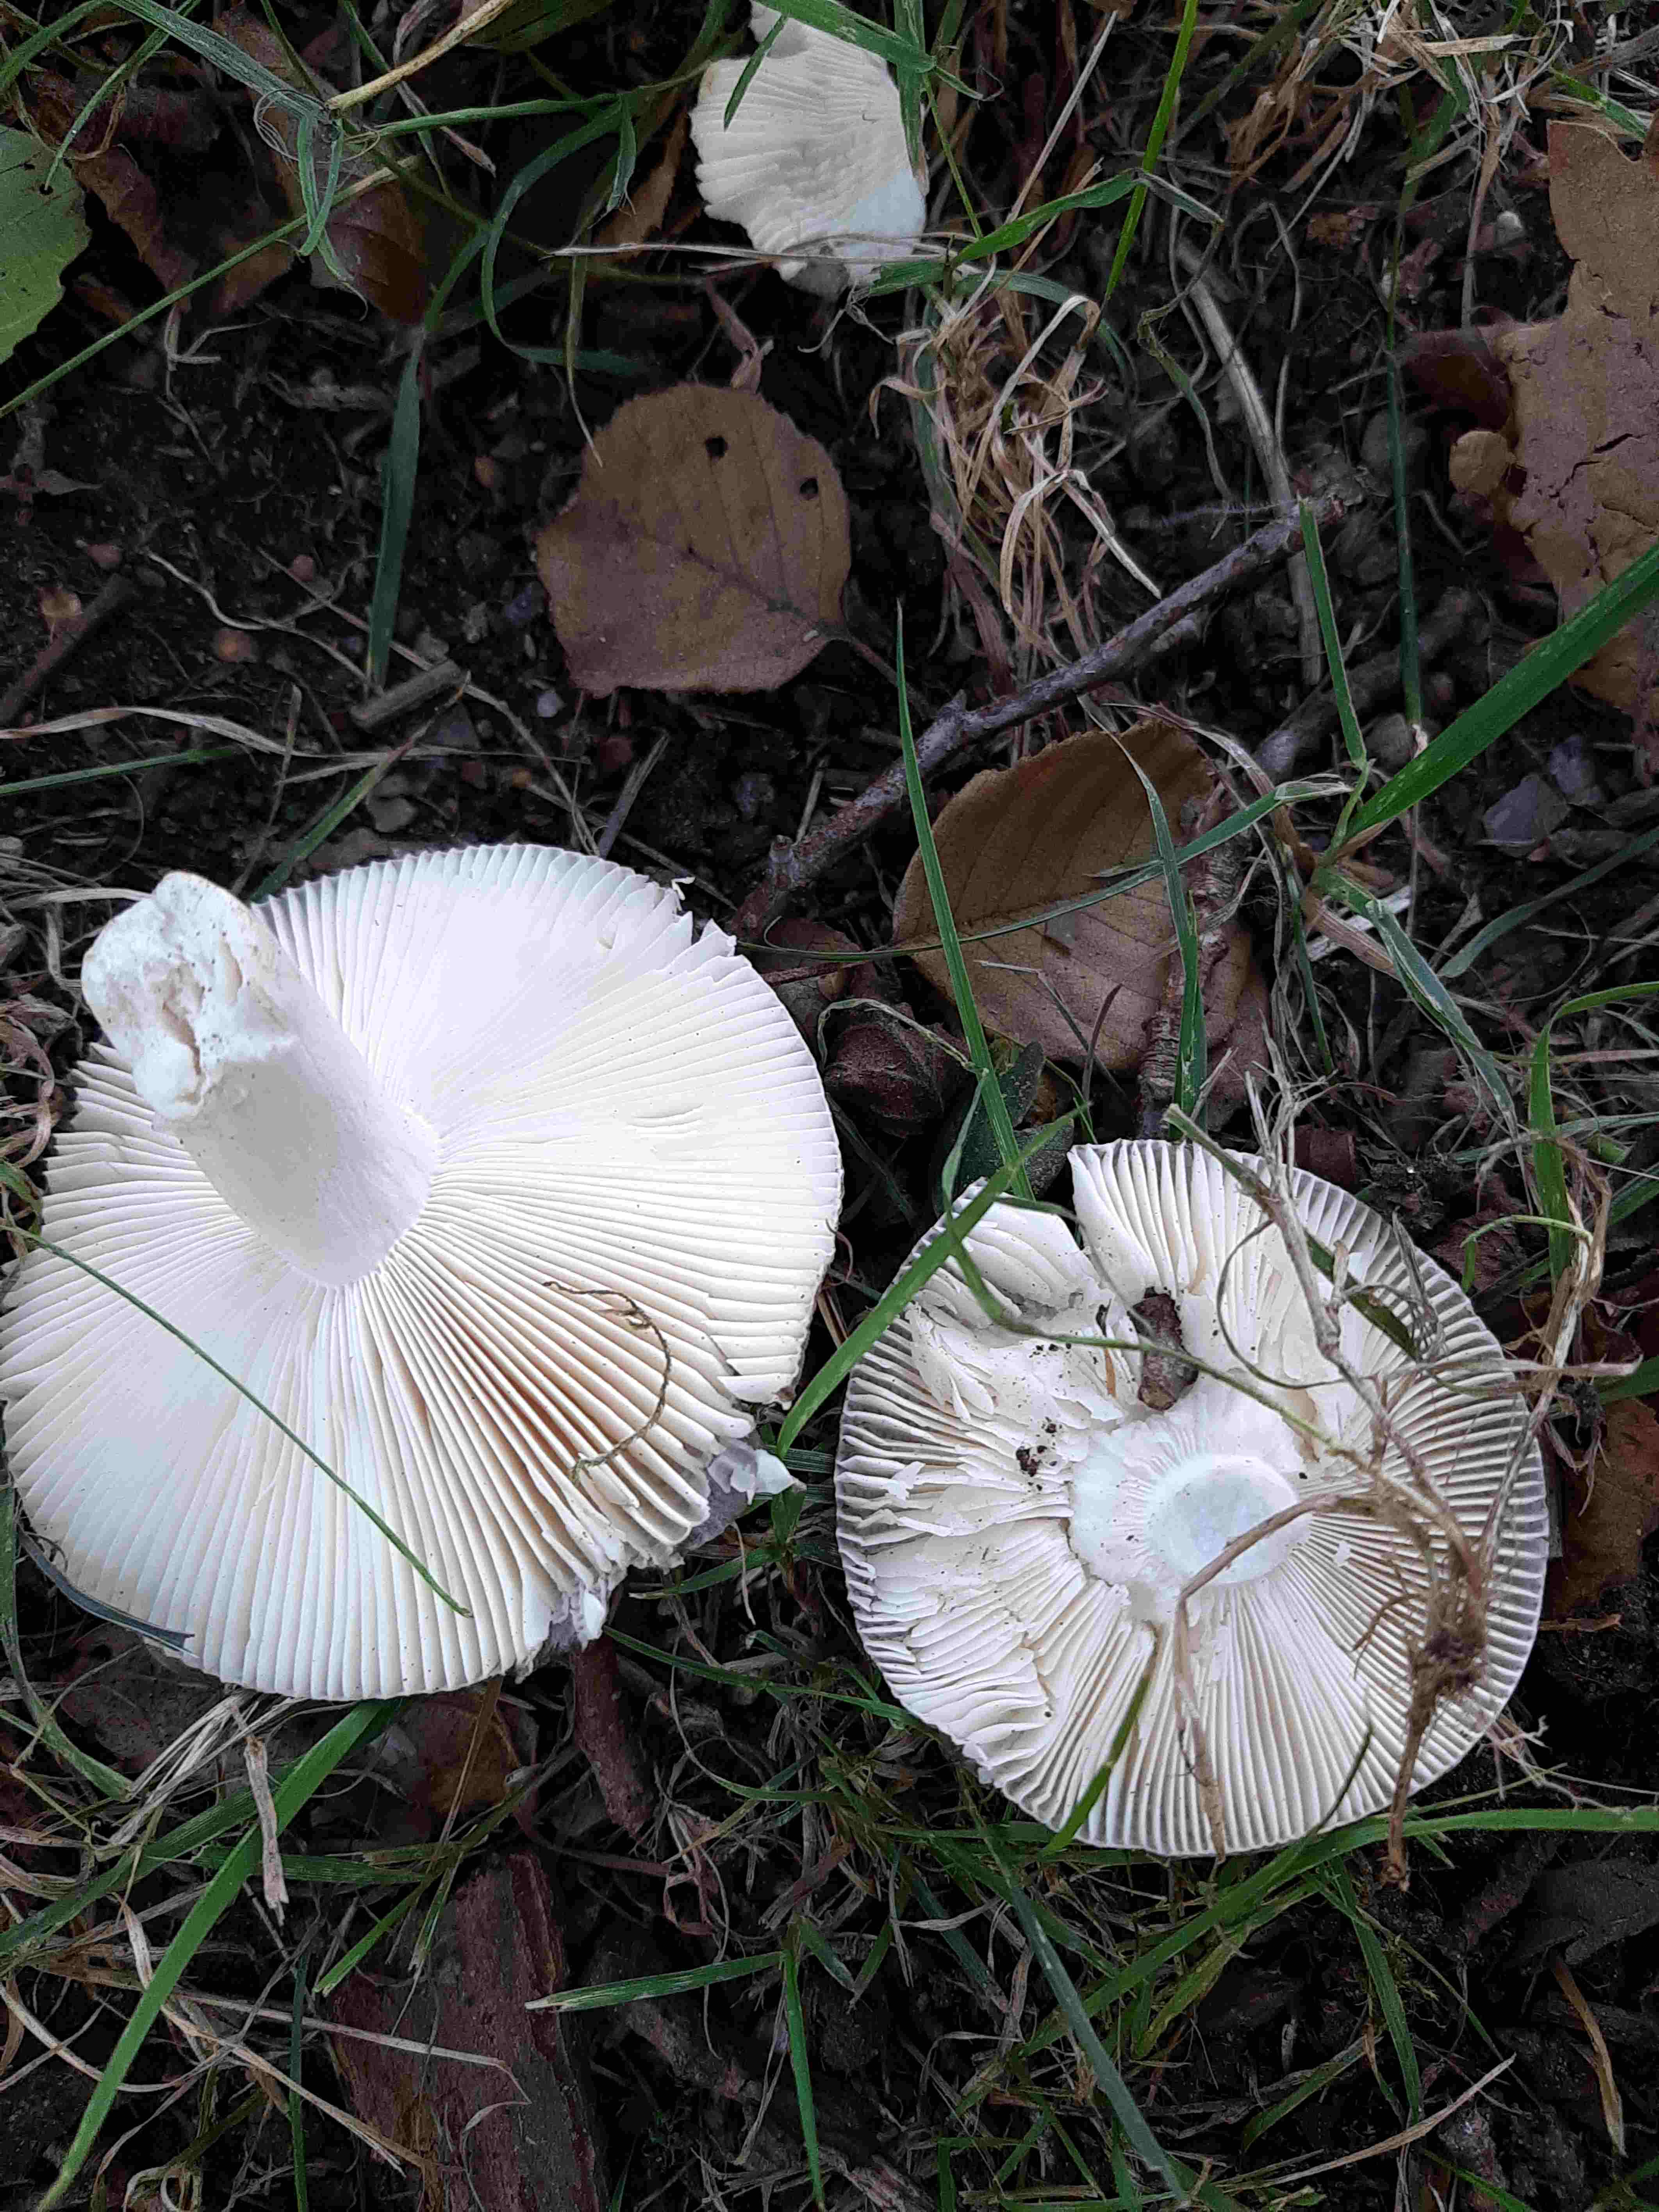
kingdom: Fungi
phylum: Basidiomycota
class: Agaricomycetes
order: Russulales
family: Russulaceae
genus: Russula
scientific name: Russula
